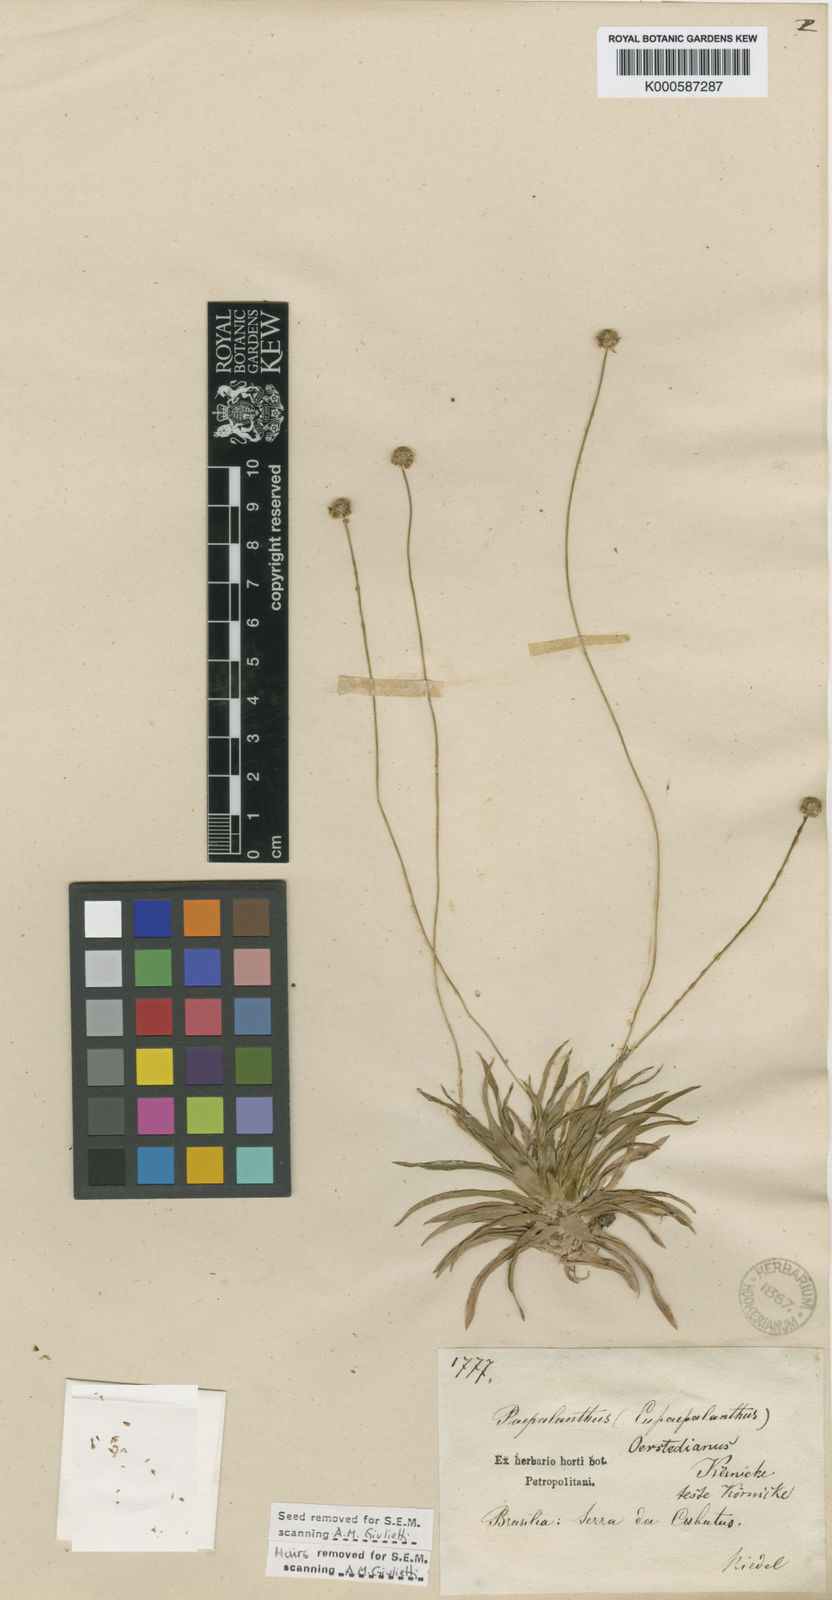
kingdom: Plantae
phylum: Tracheophyta
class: Liliopsida
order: Poales
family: Eriocaulaceae
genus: Paepalanthus
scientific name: Paepalanthus
